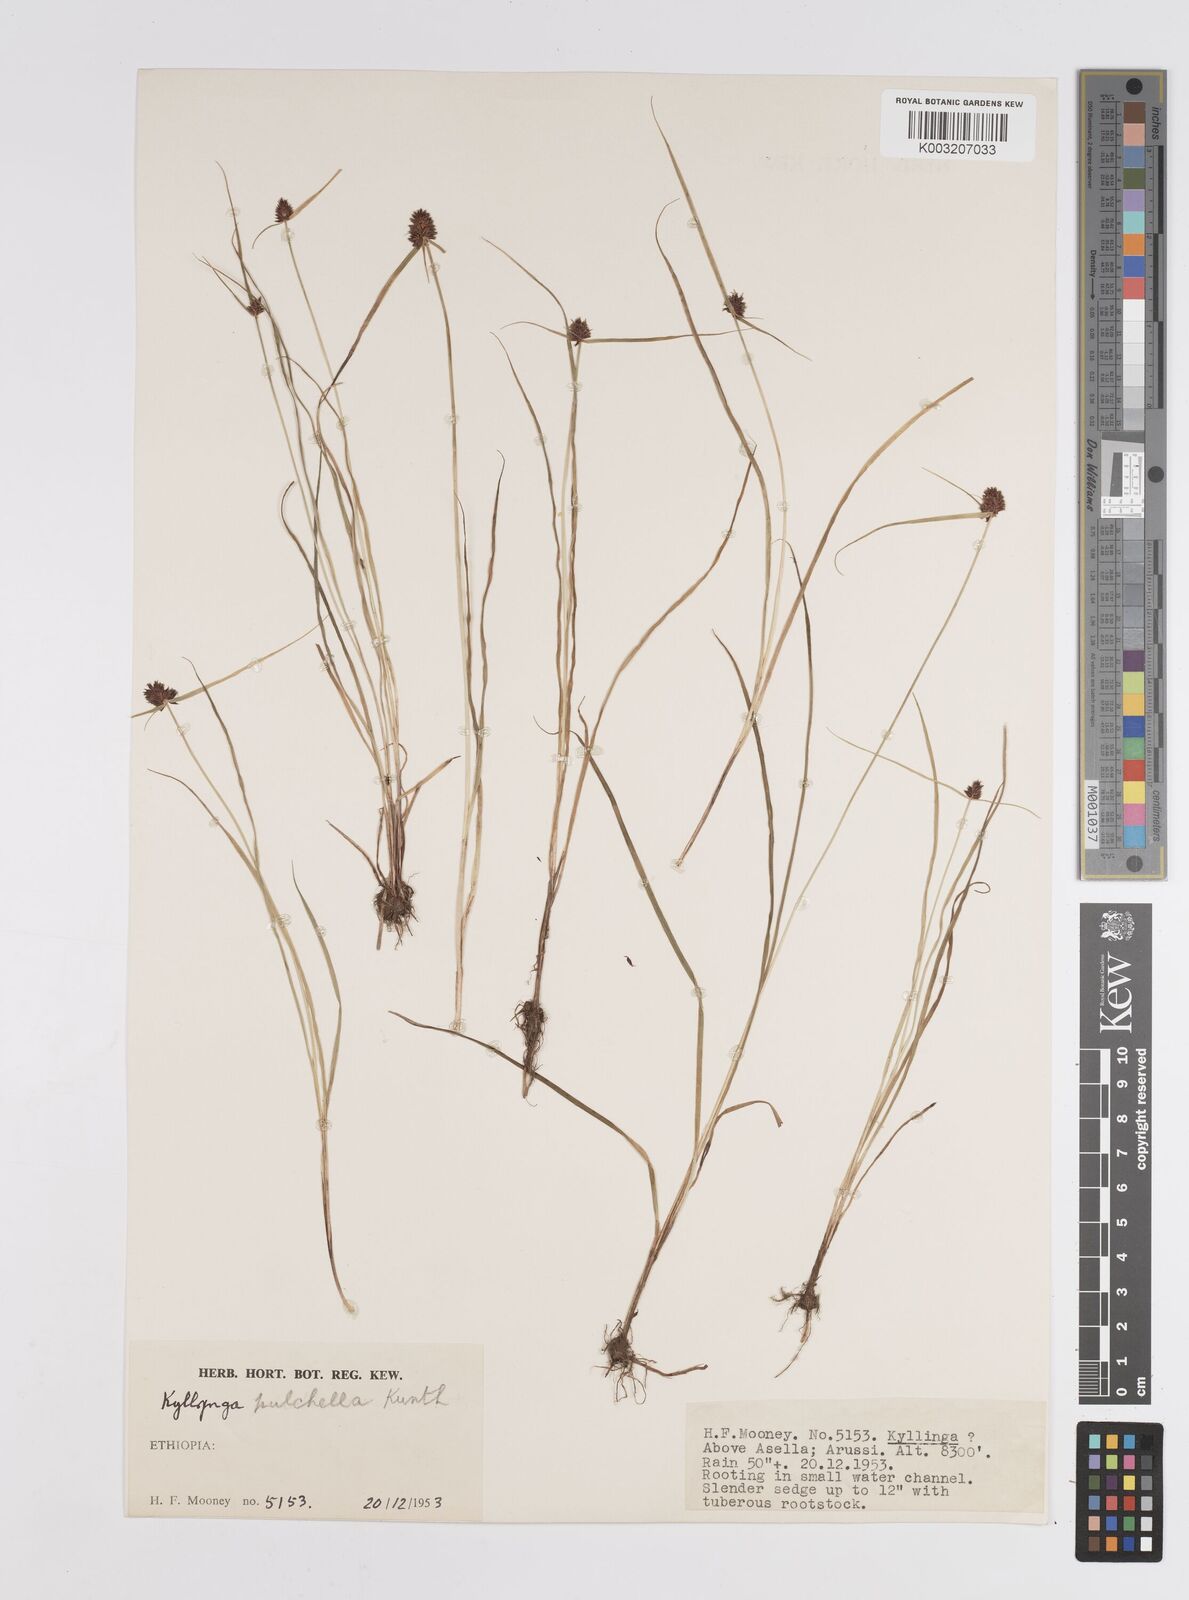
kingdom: Plantae
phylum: Tracheophyta
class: Liliopsida
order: Poales
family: Cyperaceae
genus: Cyperus
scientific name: Cyperus
